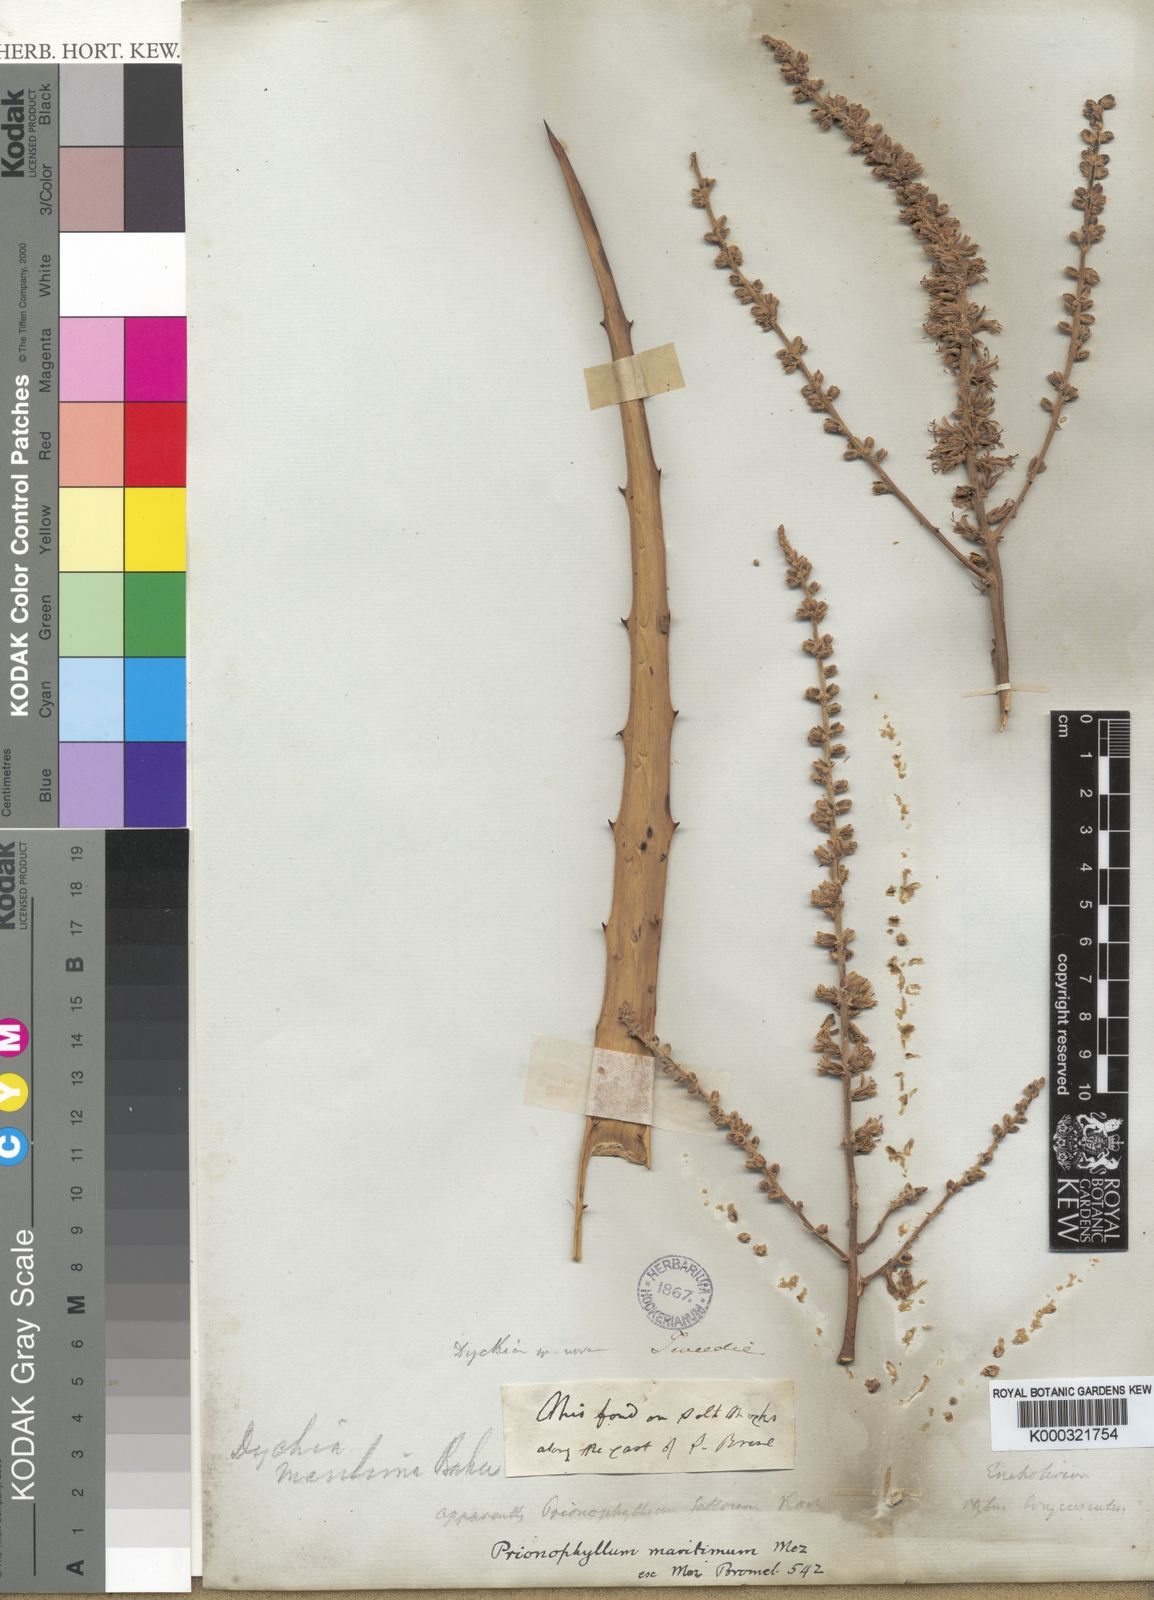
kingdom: Plantae
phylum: Tracheophyta
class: Liliopsida
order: Poales
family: Bromeliaceae
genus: Dyckia
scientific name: Dyckia maritima
